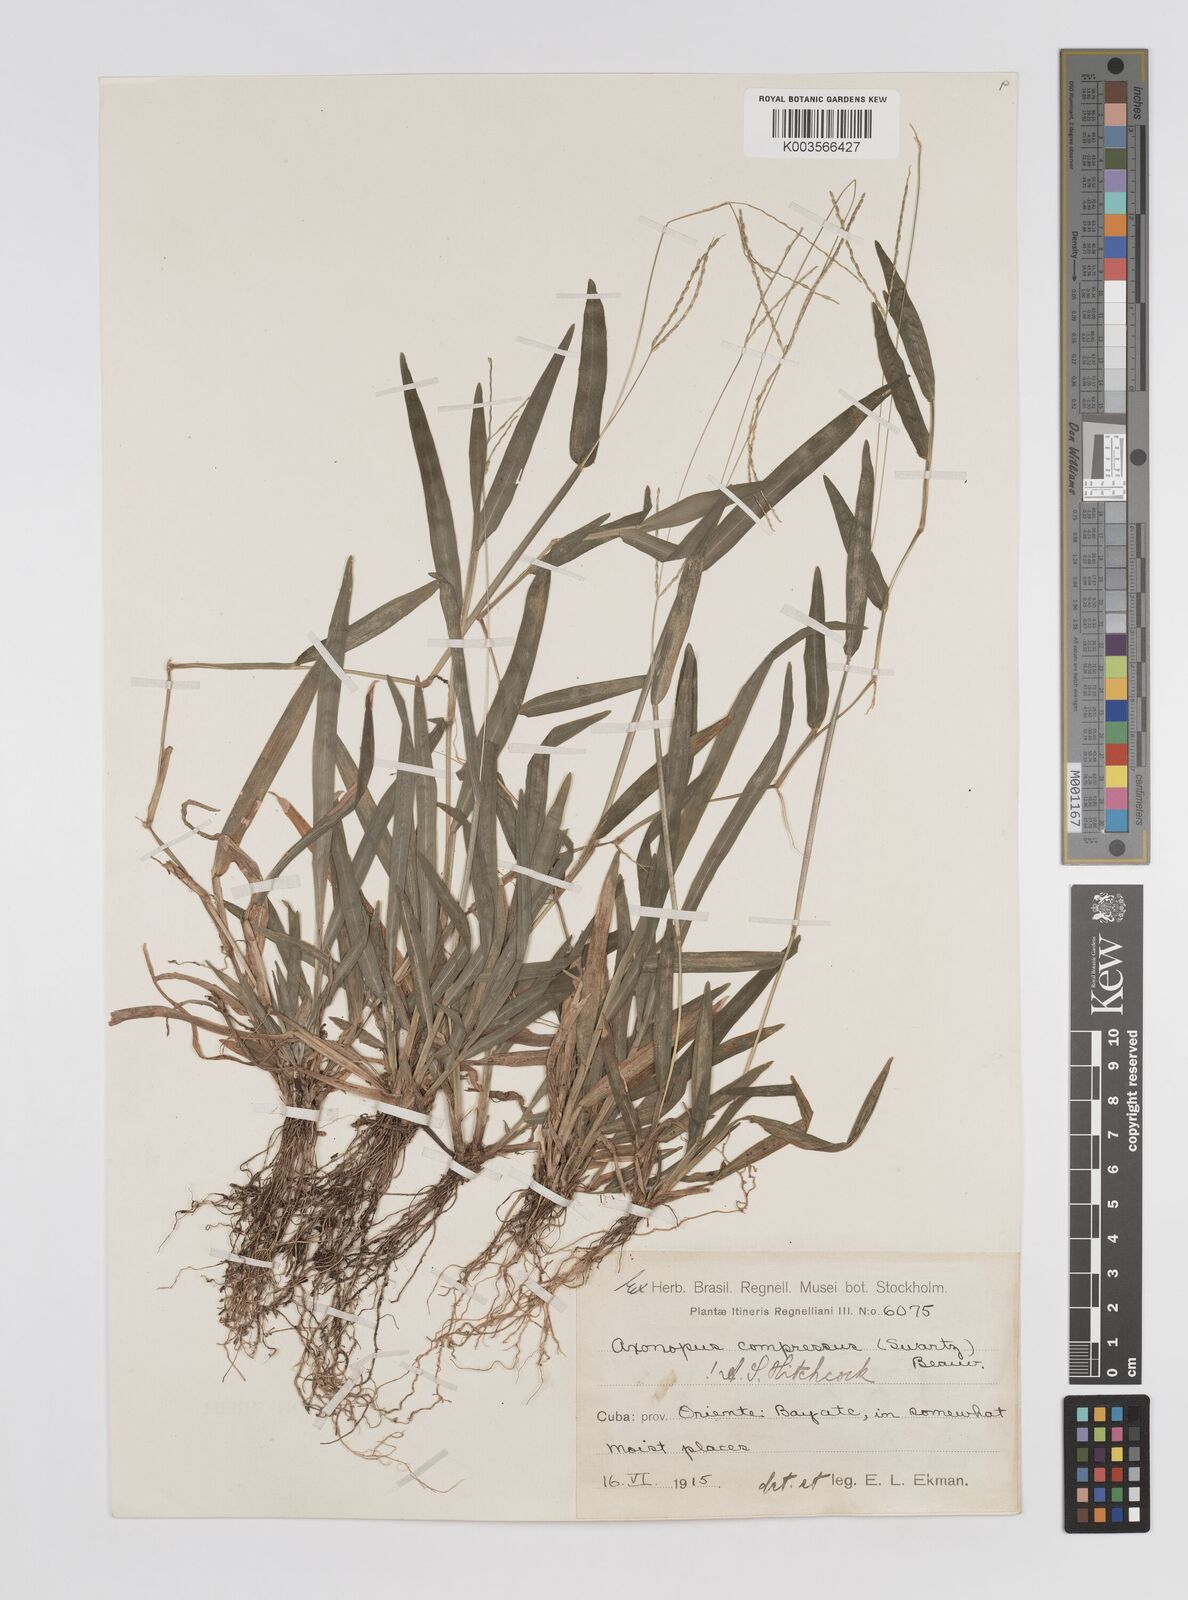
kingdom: Plantae
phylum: Tracheophyta
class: Liliopsida
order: Poales
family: Poaceae
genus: Axonopus
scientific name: Axonopus compressus
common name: American carpet grass
